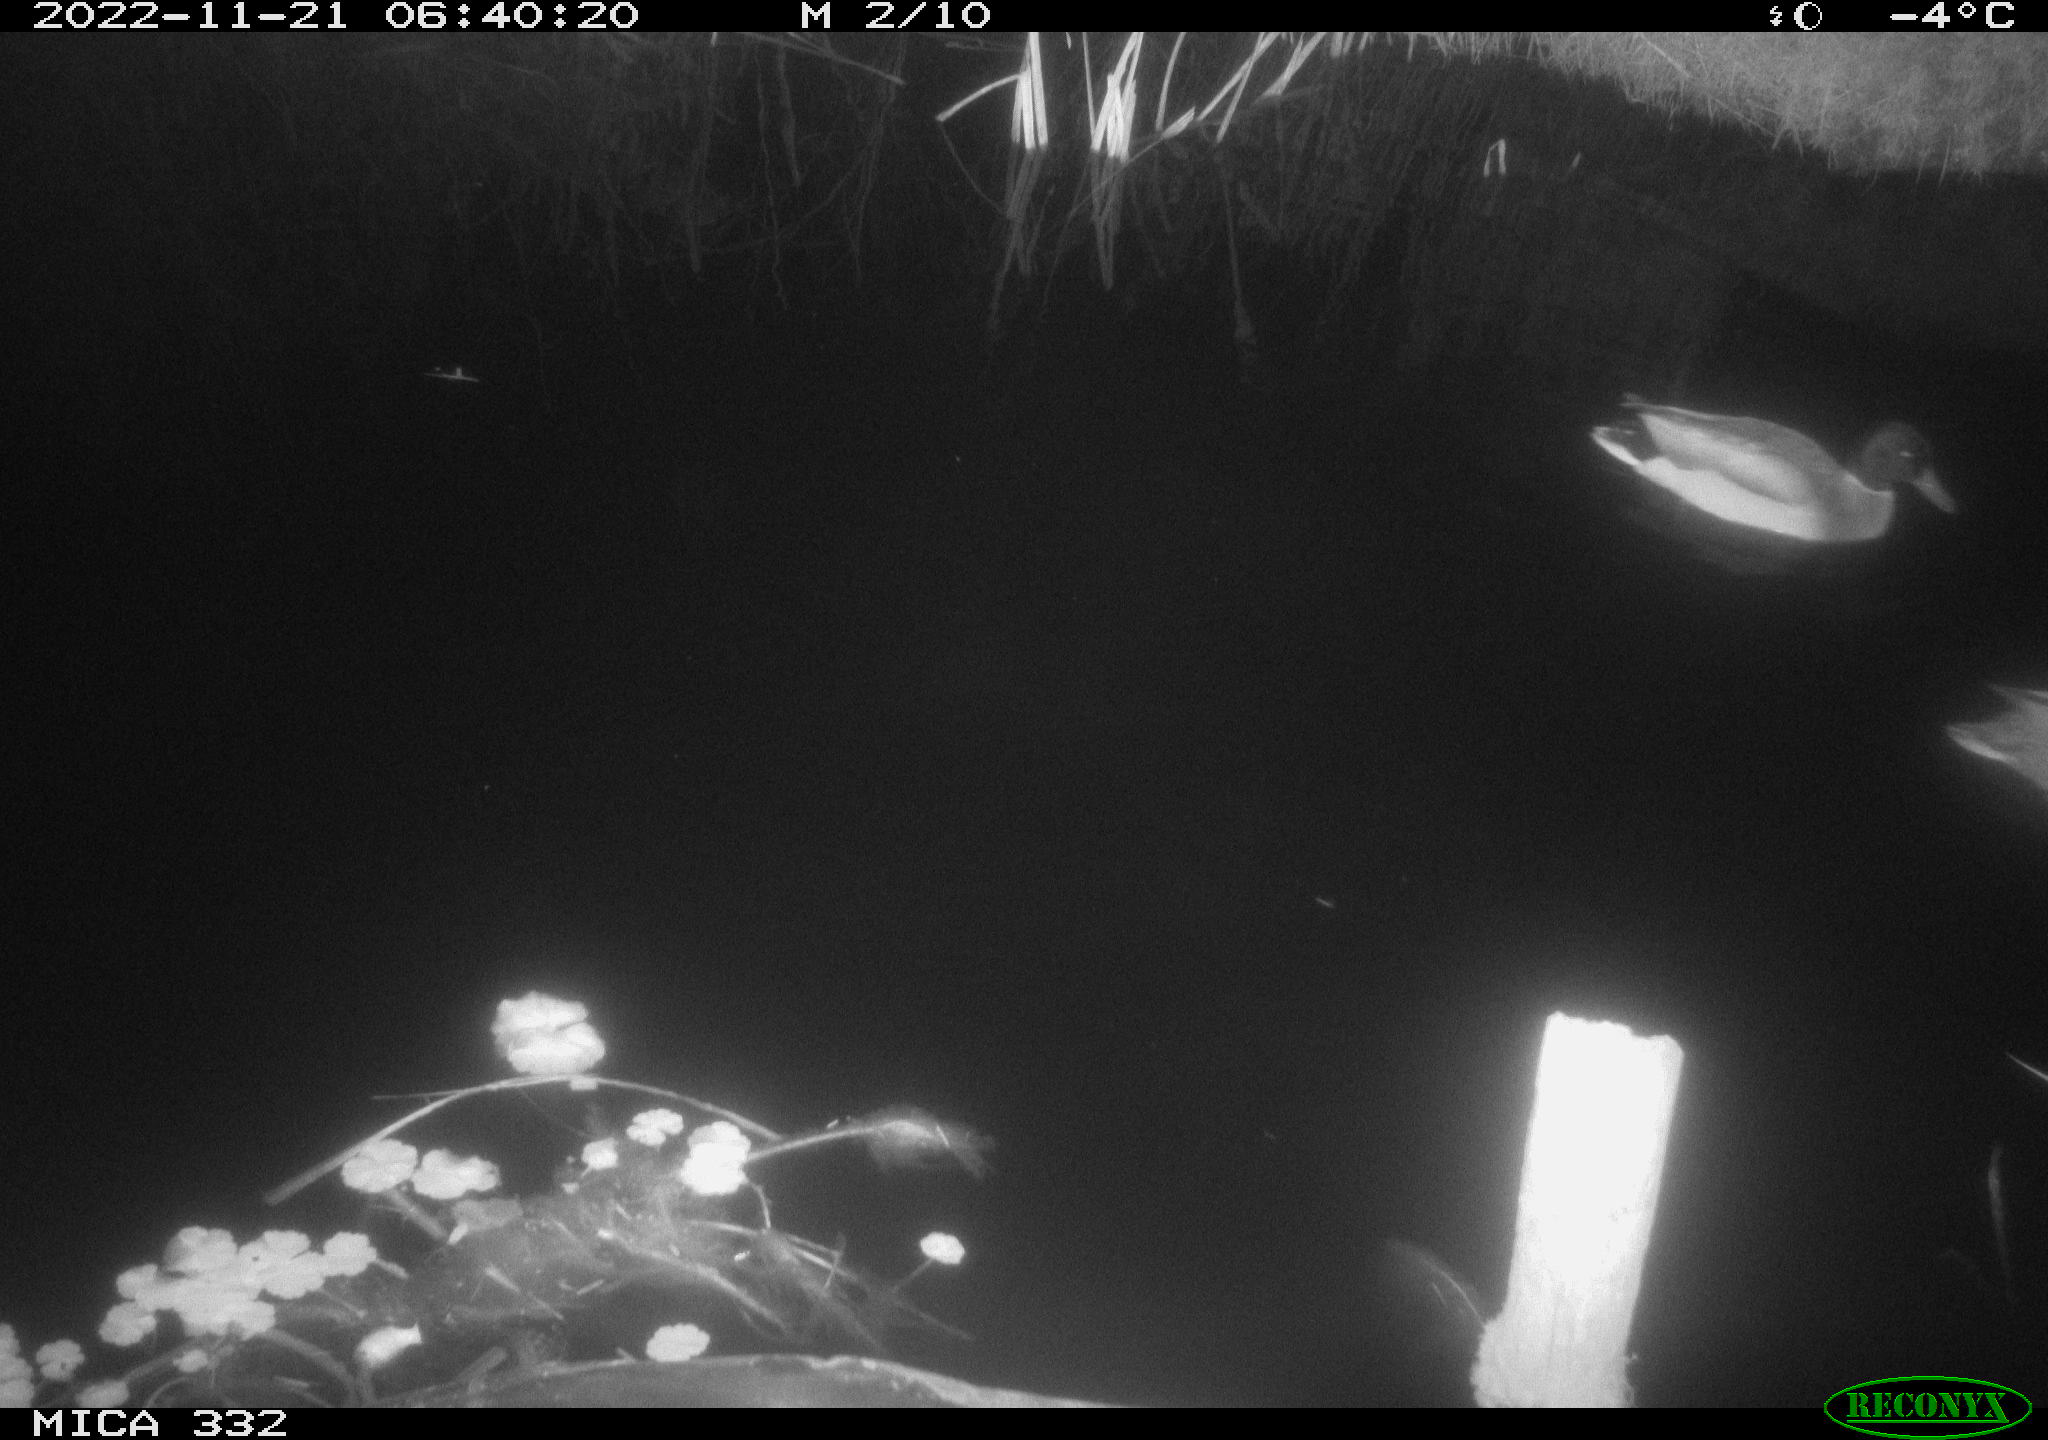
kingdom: Animalia
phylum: Chordata
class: Aves
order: Anseriformes
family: Anatidae
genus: Anas
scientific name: Anas platyrhynchos
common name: Mallard
